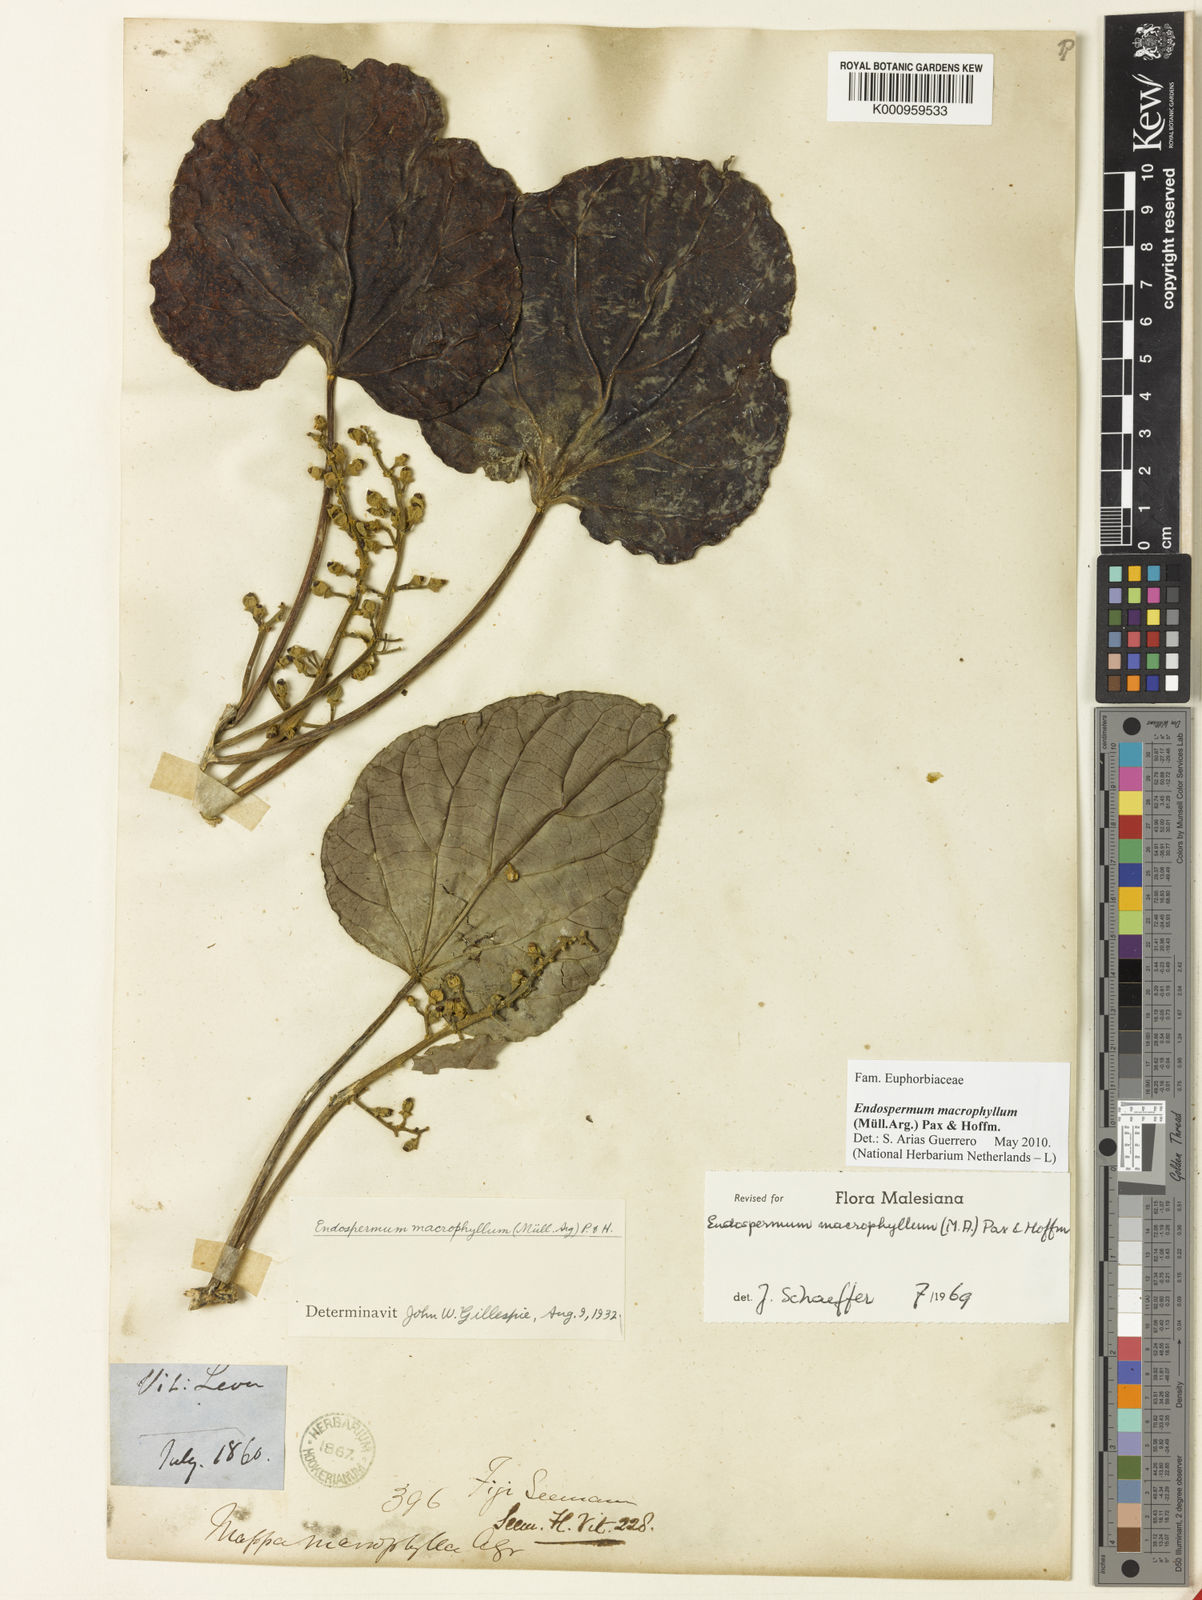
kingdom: Plantae
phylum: Tracheophyta
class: Magnoliopsida
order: Malpighiales
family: Euphorbiaceae
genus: Endospermum
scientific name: Endospermum
